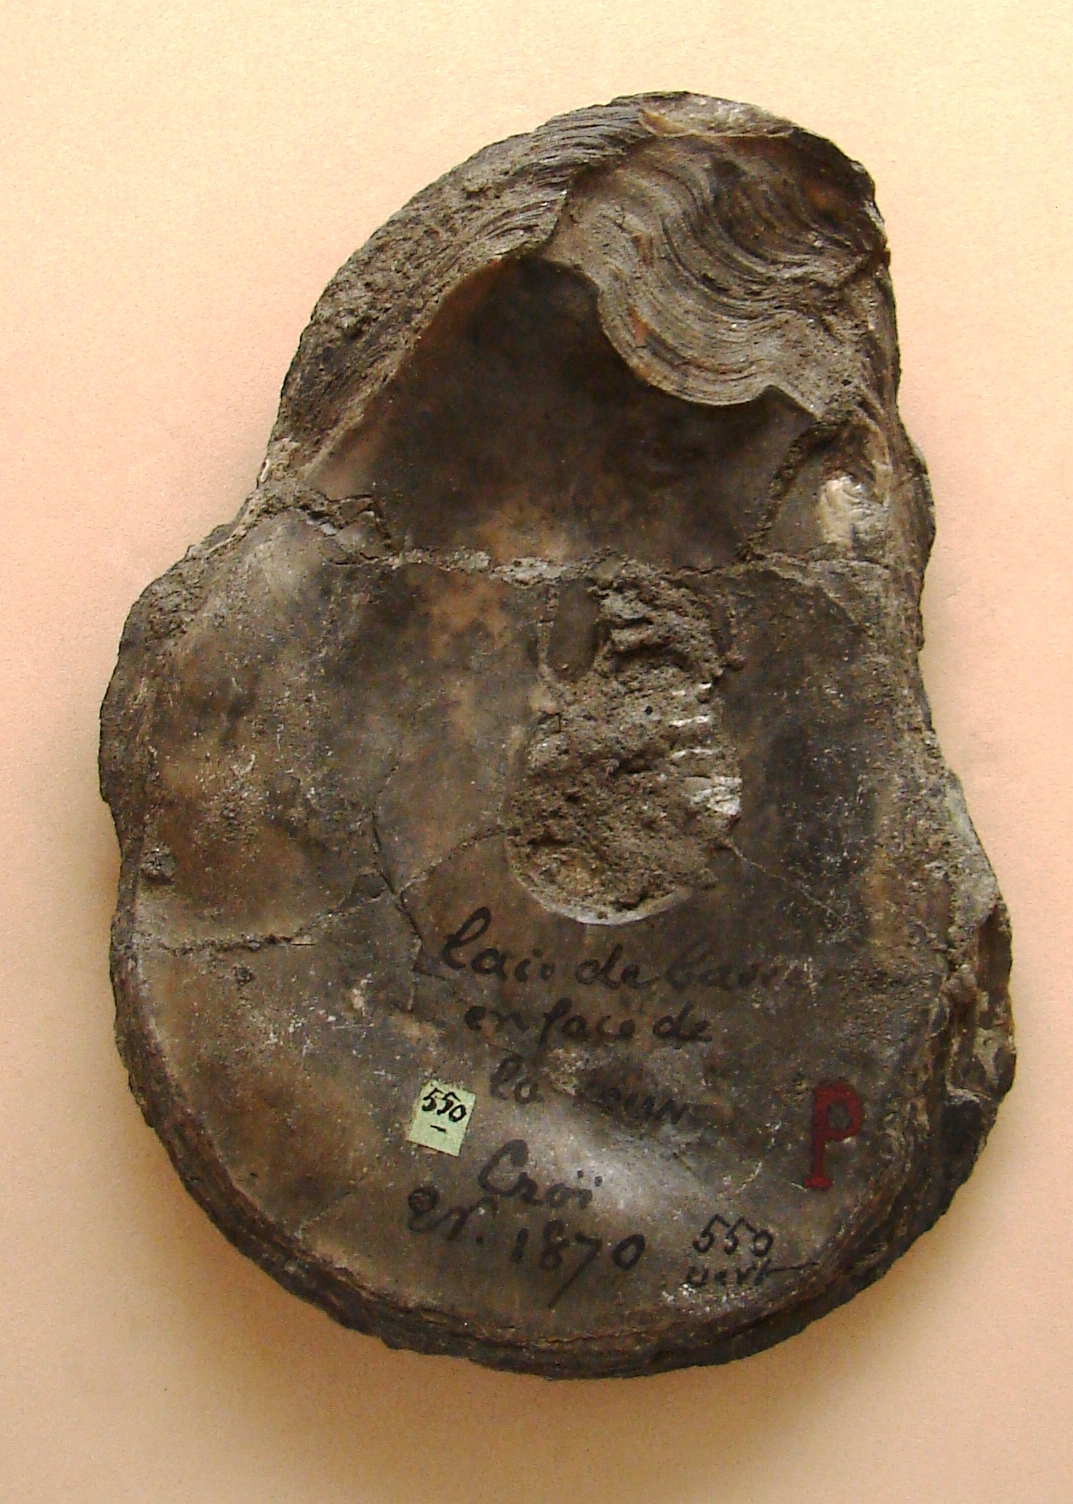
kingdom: Animalia
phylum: Mollusca
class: Bivalvia
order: Ostreida
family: Ostreidae
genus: Ostrea
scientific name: Ostrea expansa
